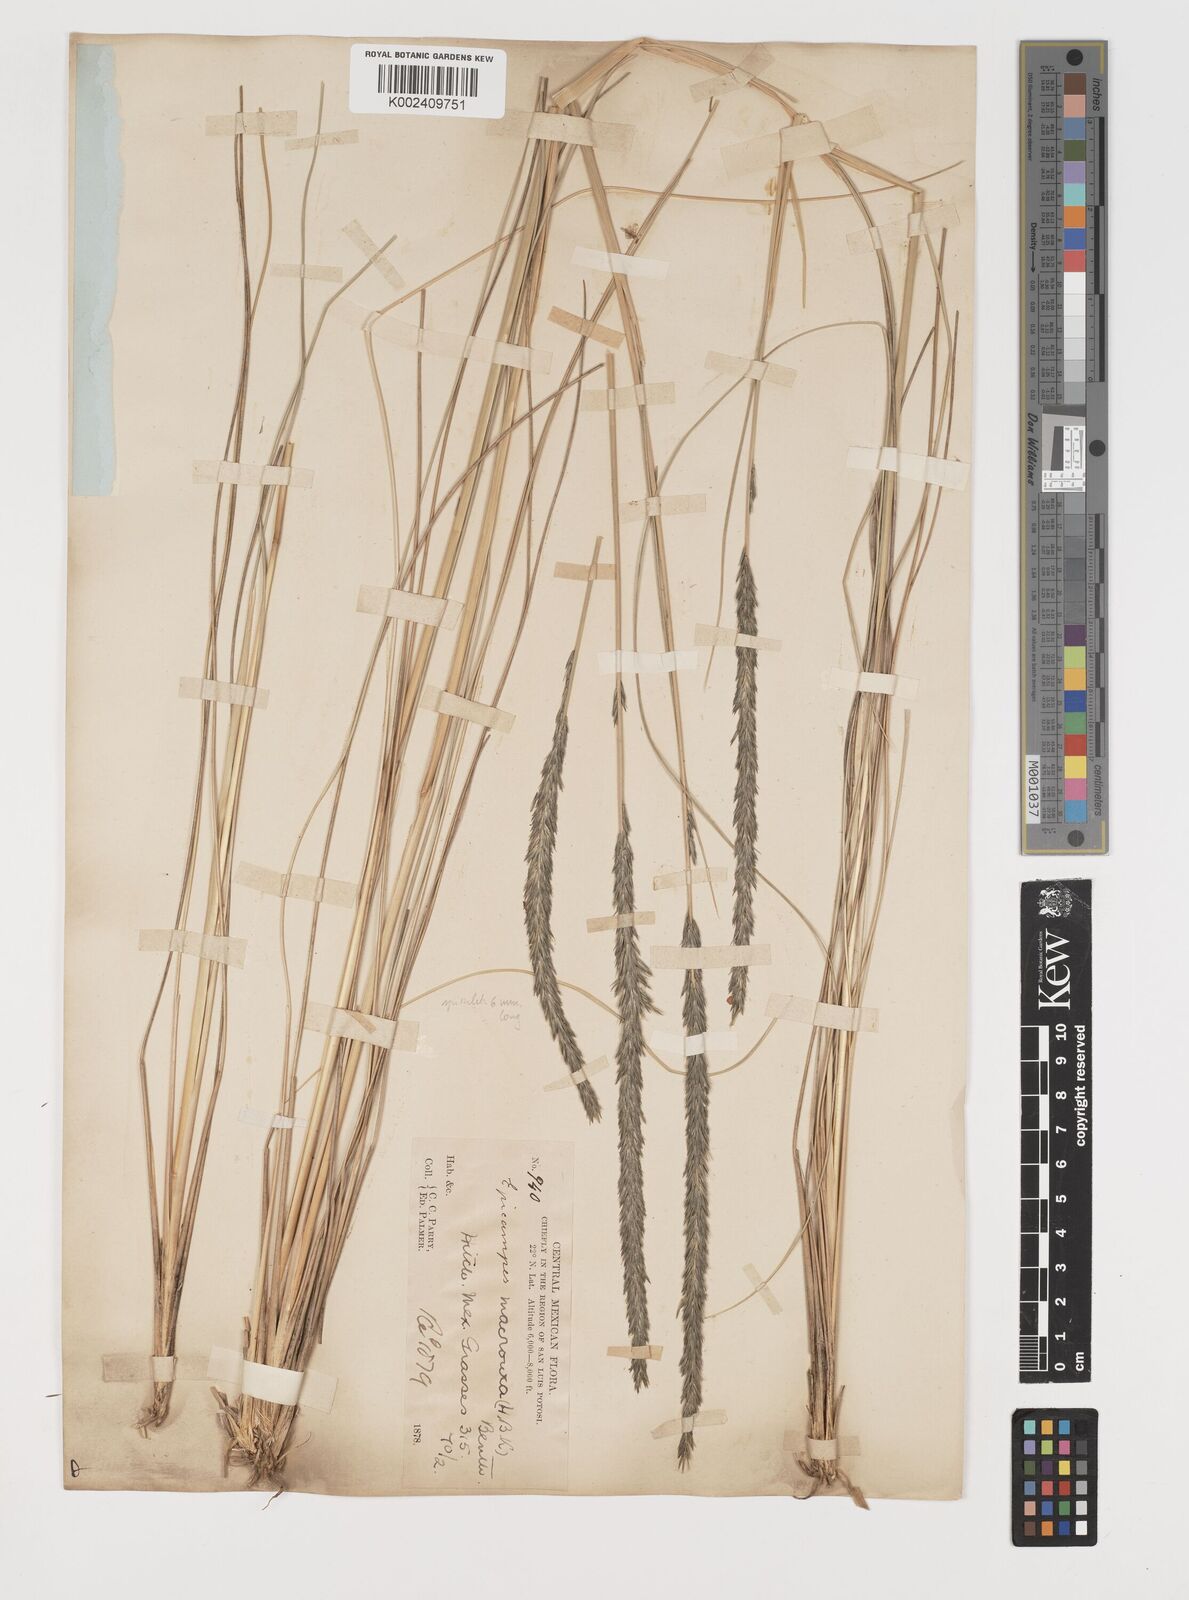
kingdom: Plantae
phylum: Tracheophyta
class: Liliopsida
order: Poales
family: Poaceae
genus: Muhlenbergia
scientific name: Muhlenbergia nigra
